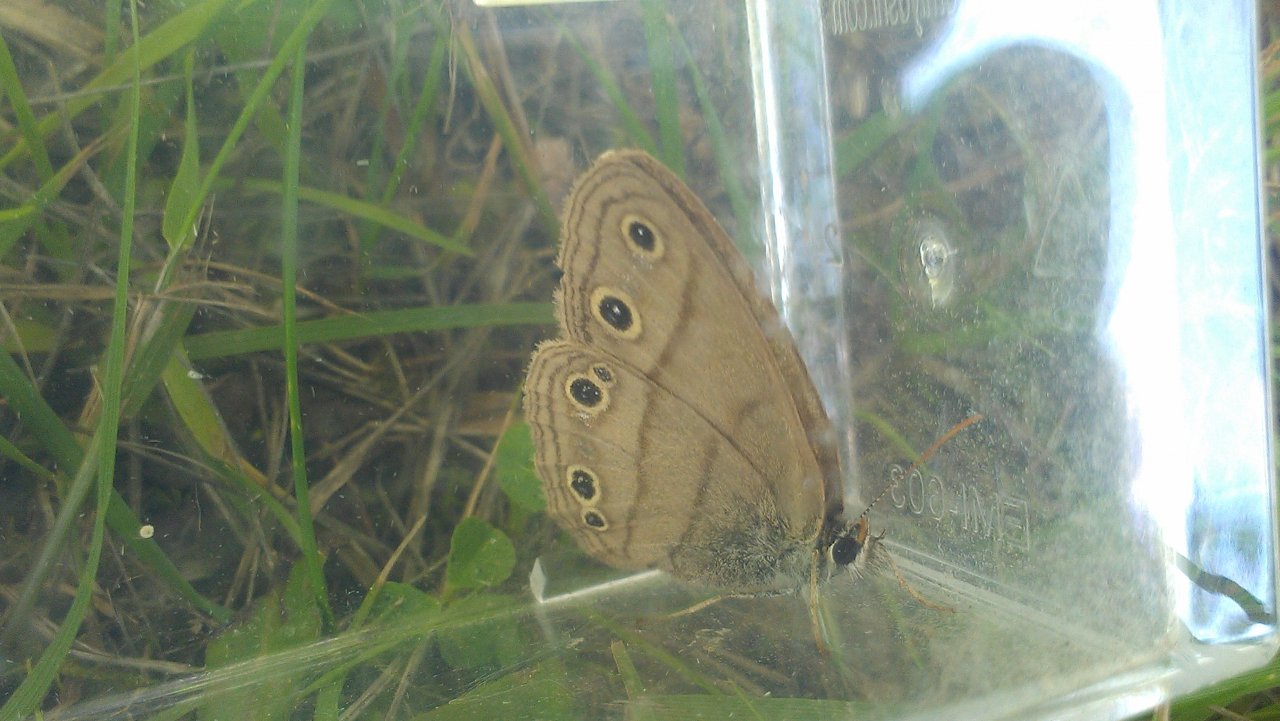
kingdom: Animalia
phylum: Arthropoda
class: Insecta
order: Lepidoptera
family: Nymphalidae
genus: Euptychia
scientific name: Euptychia cymela
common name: Little Wood Satyr
